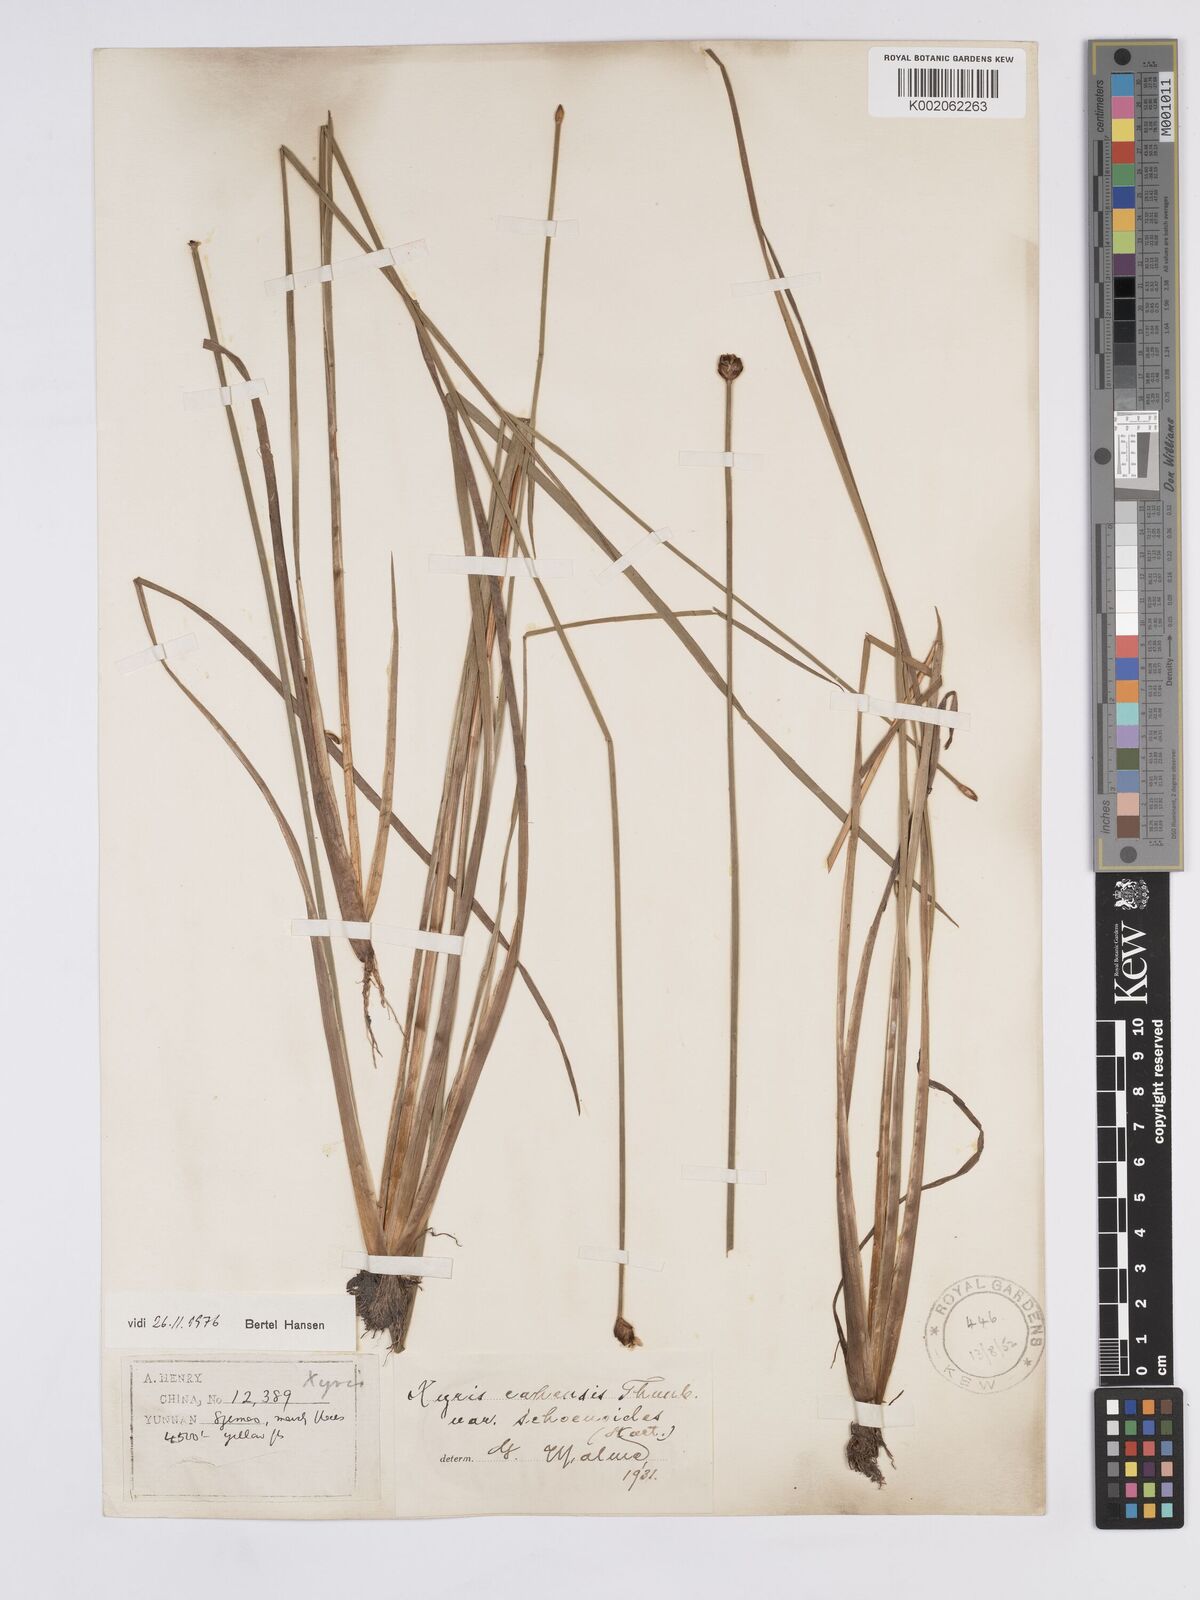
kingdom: Plantae
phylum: Tracheophyta
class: Liliopsida
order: Poales
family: Xyridaceae
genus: Xyris
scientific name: Xyris capensis
